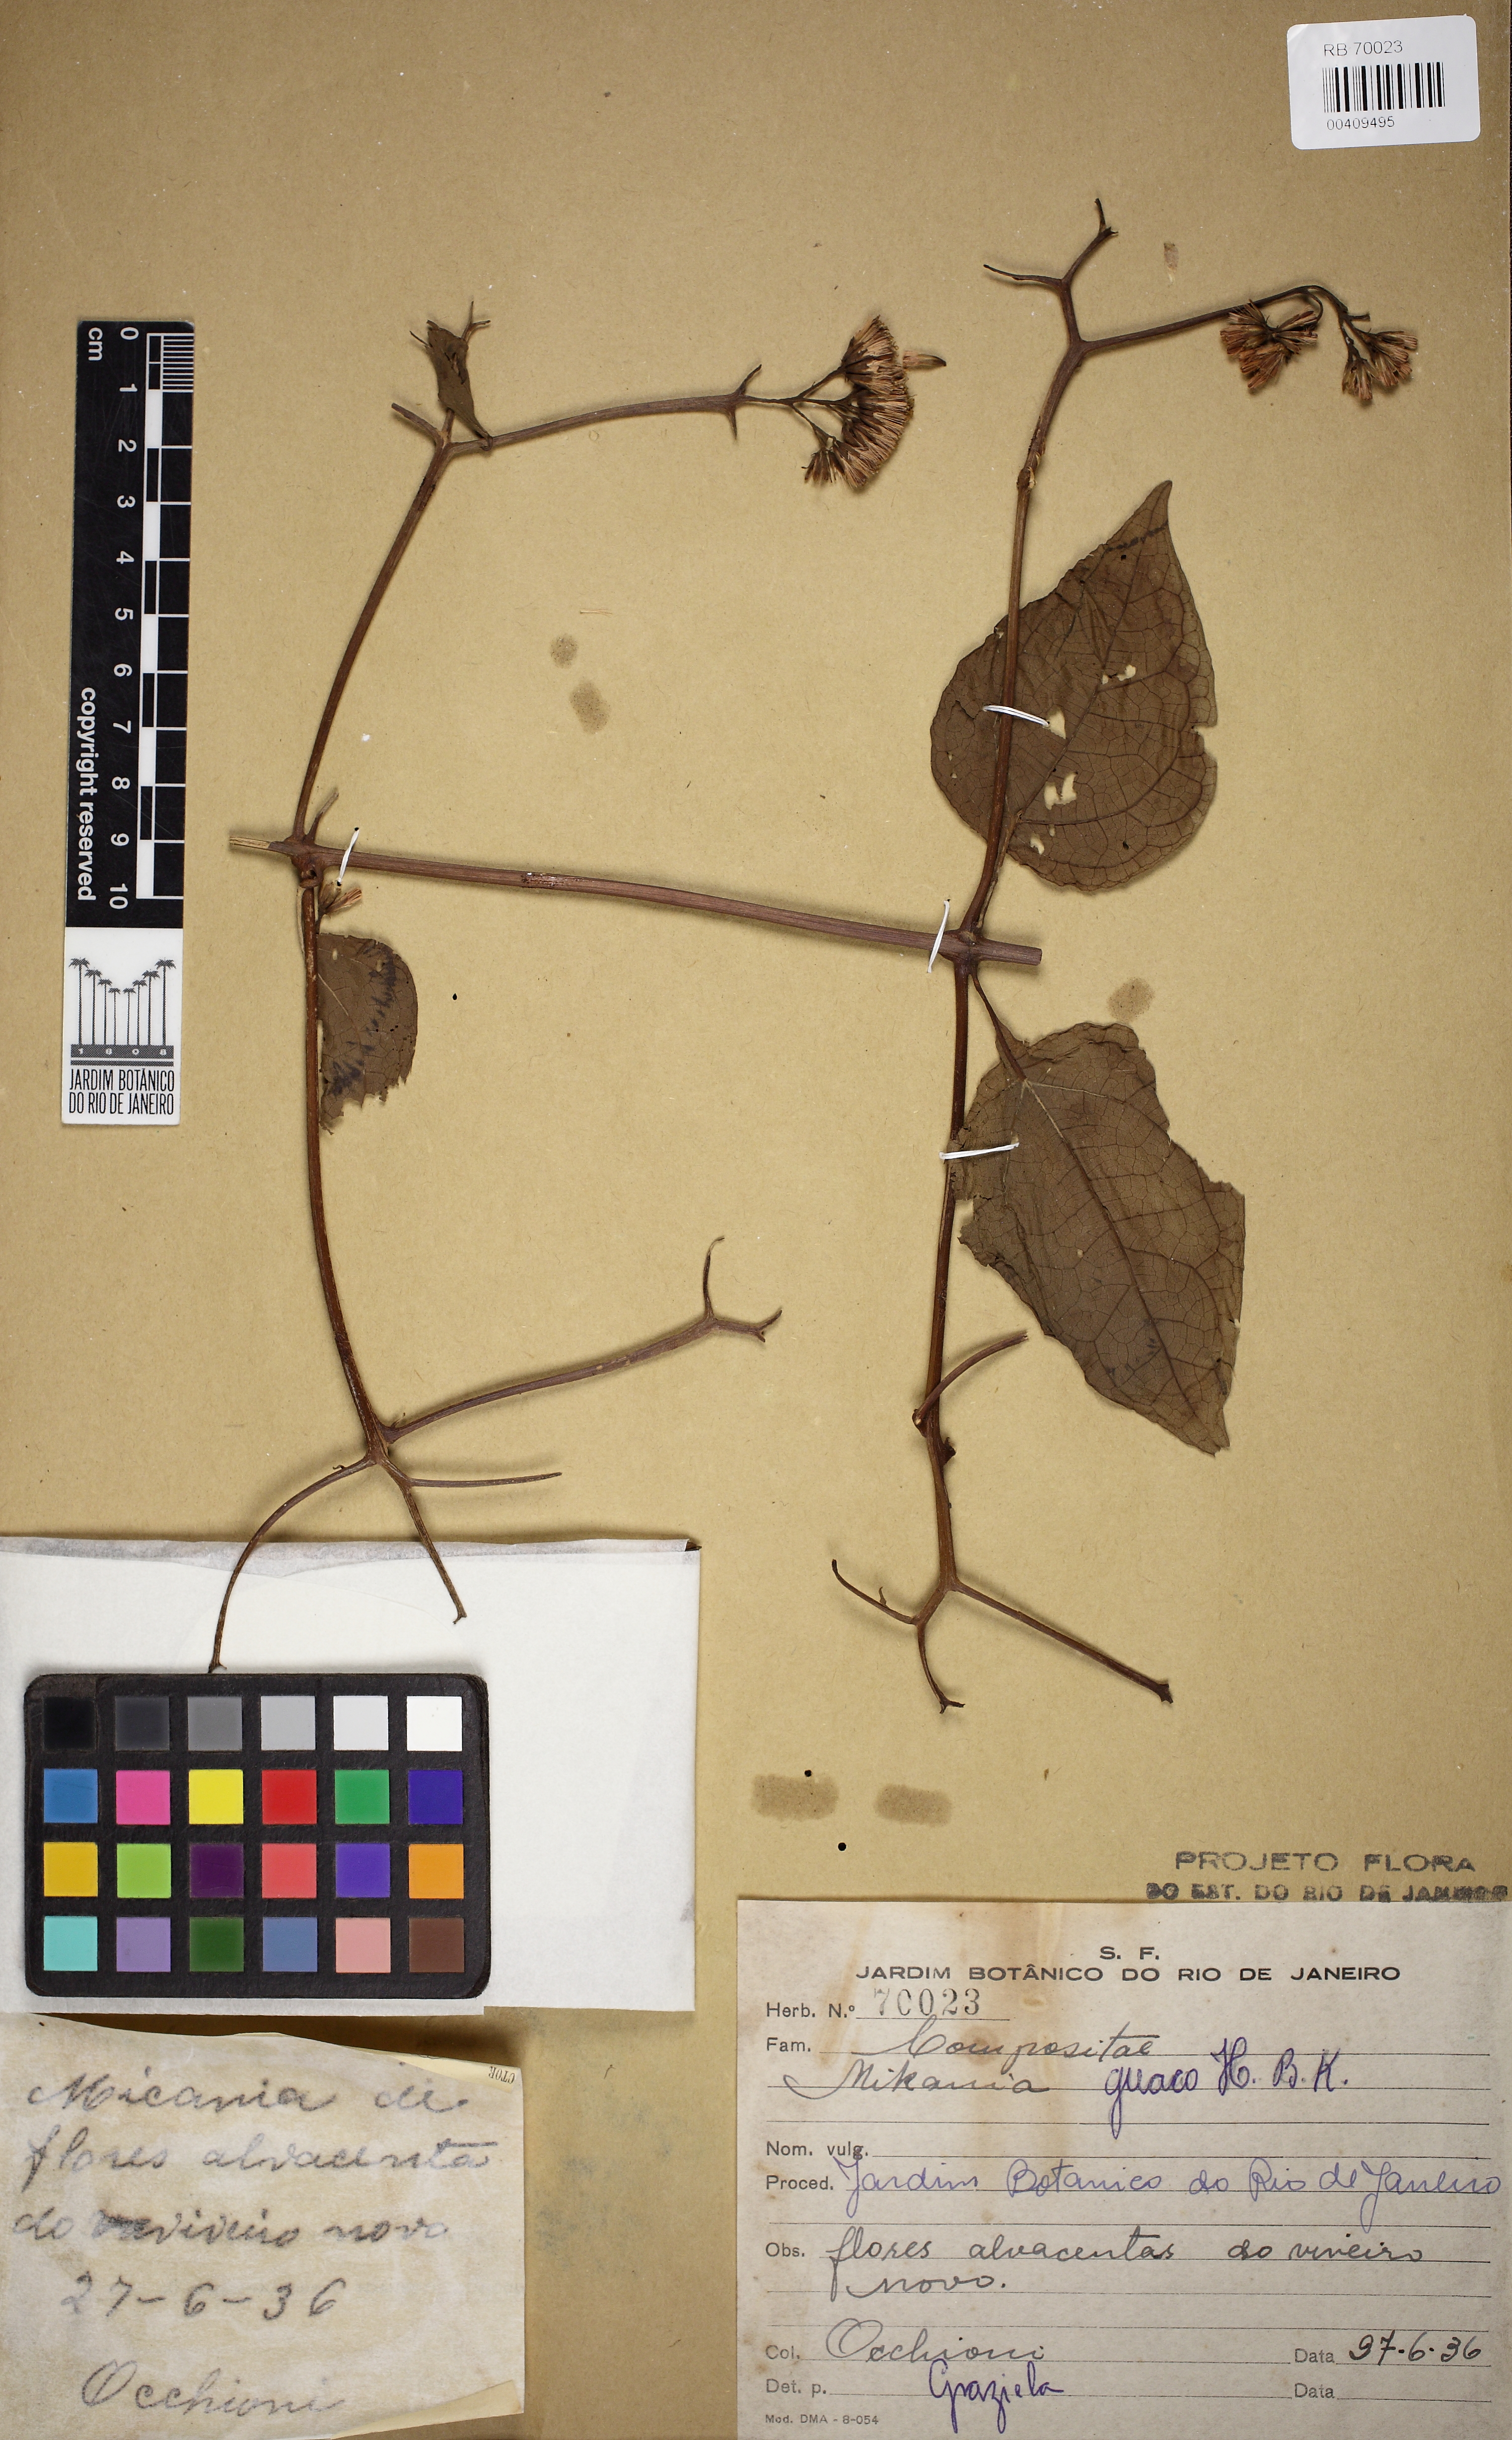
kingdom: Plantae
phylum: Tracheophyta
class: Magnoliopsida
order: Asterales
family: Asteraceae
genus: Mikania
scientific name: Mikania guaco
